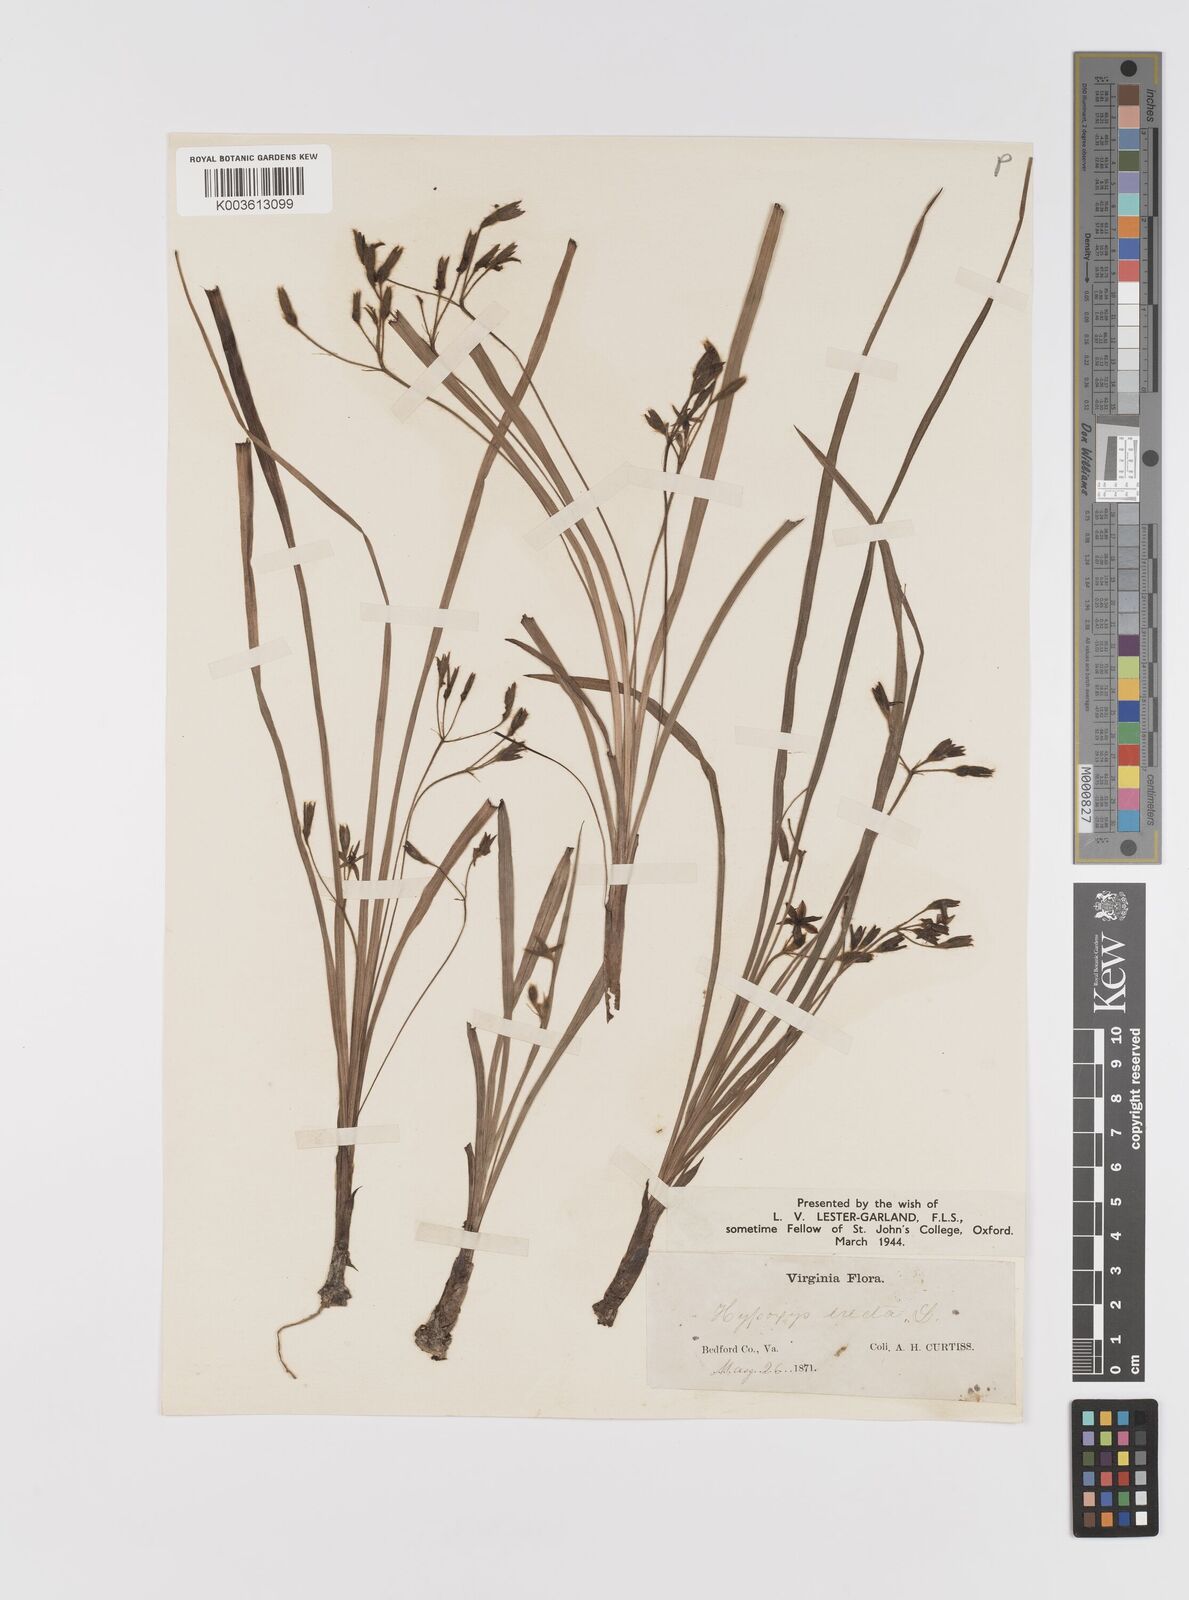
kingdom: Plantae
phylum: Tracheophyta
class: Liliopsida
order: Asparagales
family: Hypoxidaceae
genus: Hypoxis
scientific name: Hypoxis hirsuta
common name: Common goldstar
